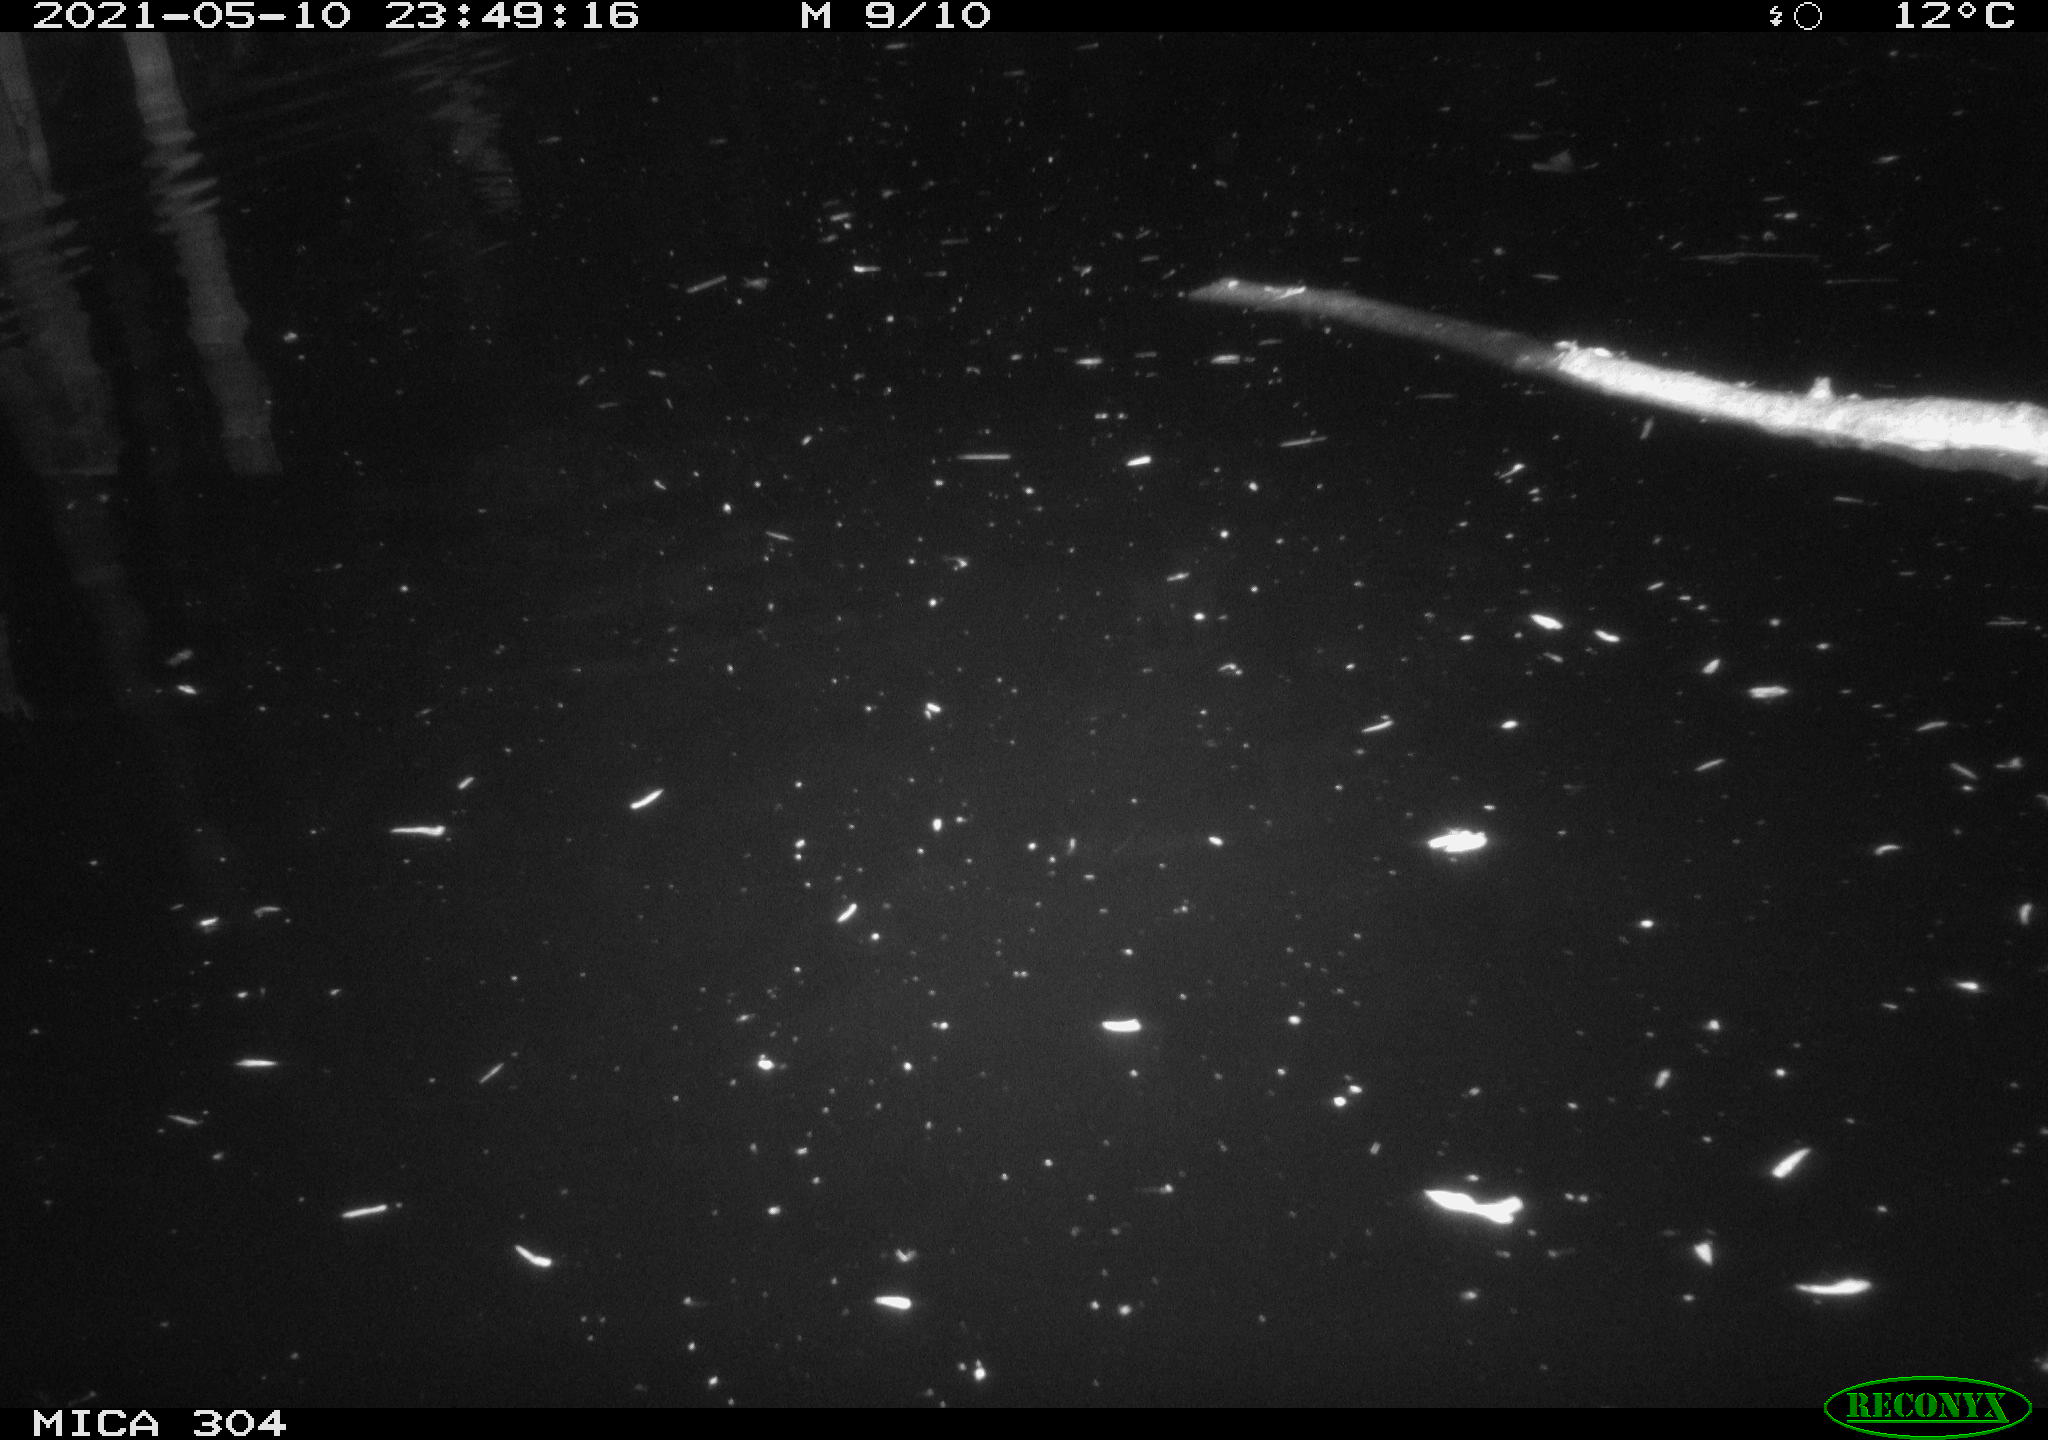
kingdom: Animalia
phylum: Chordata
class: Aves
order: Anseriformes
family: Anatidae
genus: Anas
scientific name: Anas platyrhynchos
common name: Mallard
